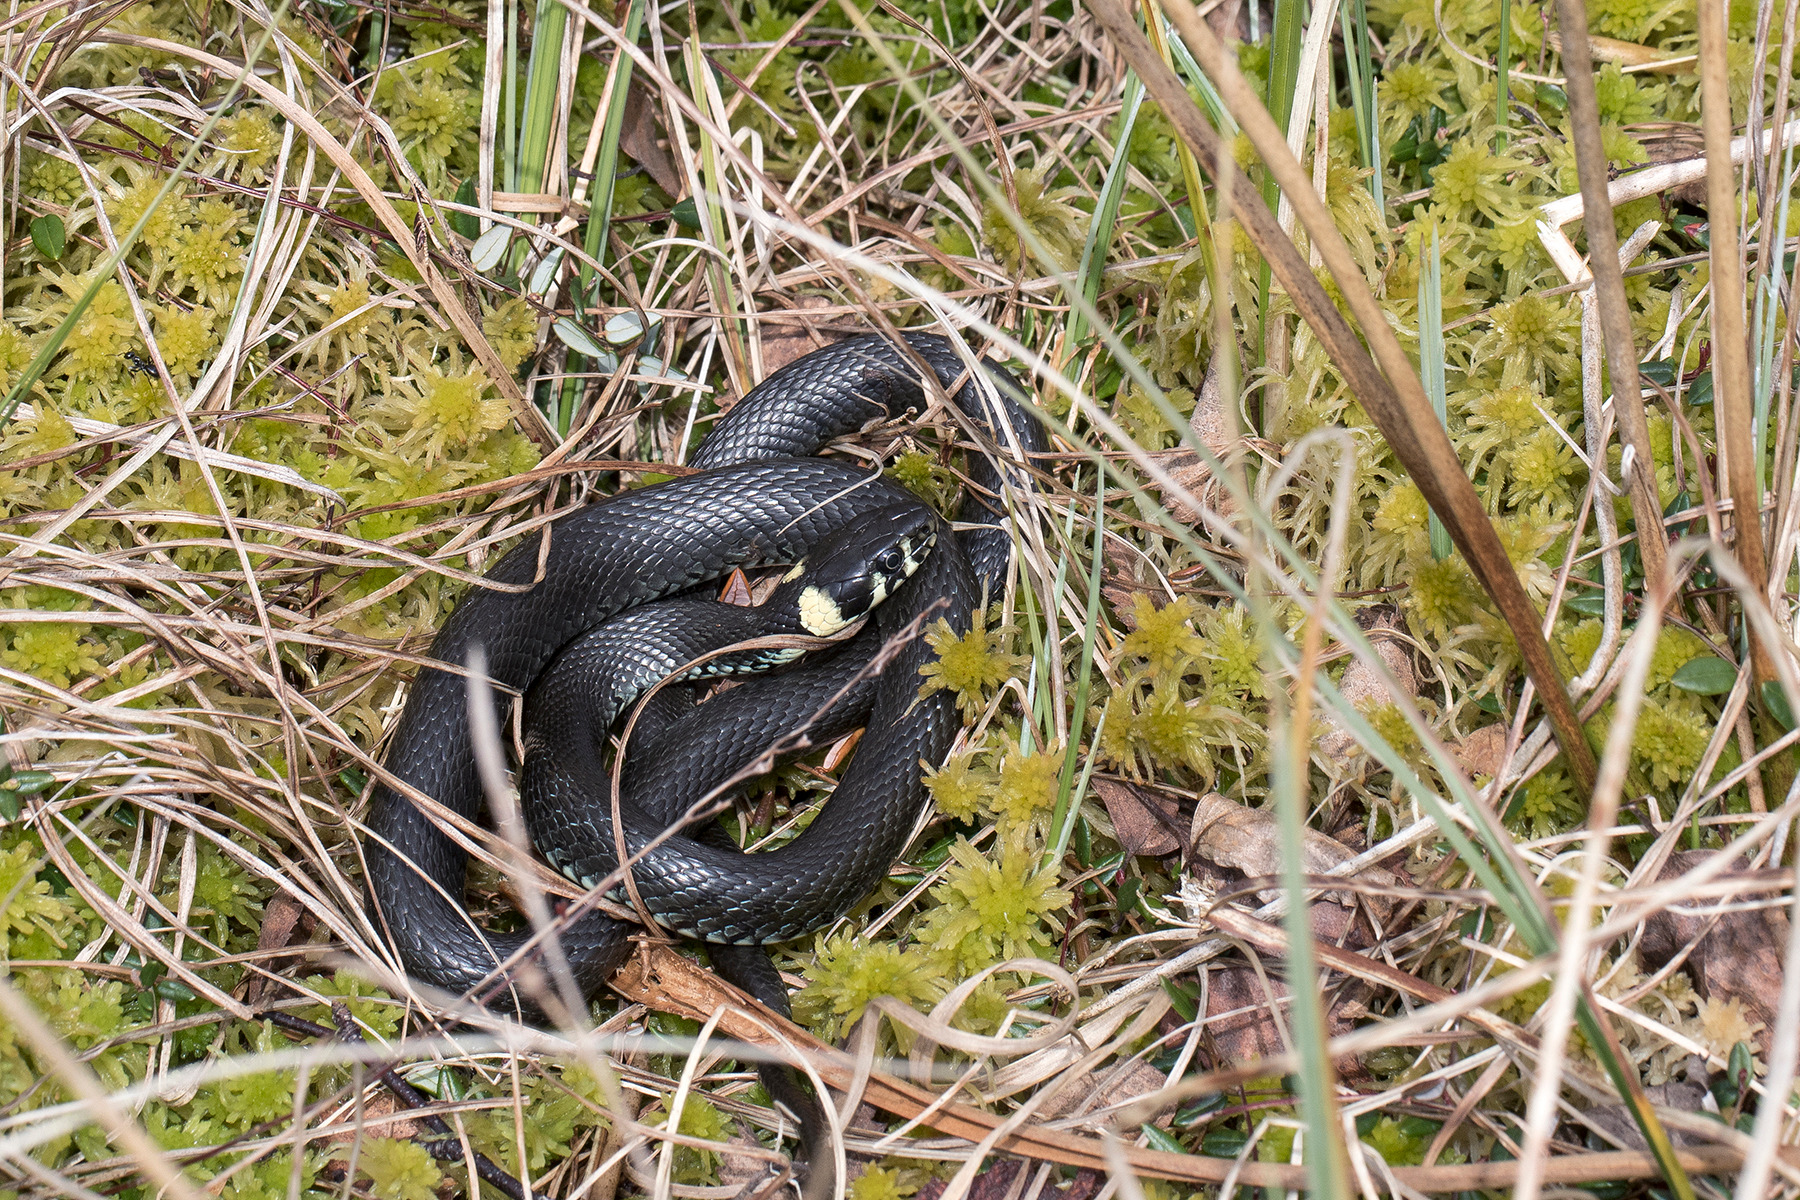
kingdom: Animalia
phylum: Chordata
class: Squamata
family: Colubridae
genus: Natrix
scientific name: Natrix natrix
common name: Snog
